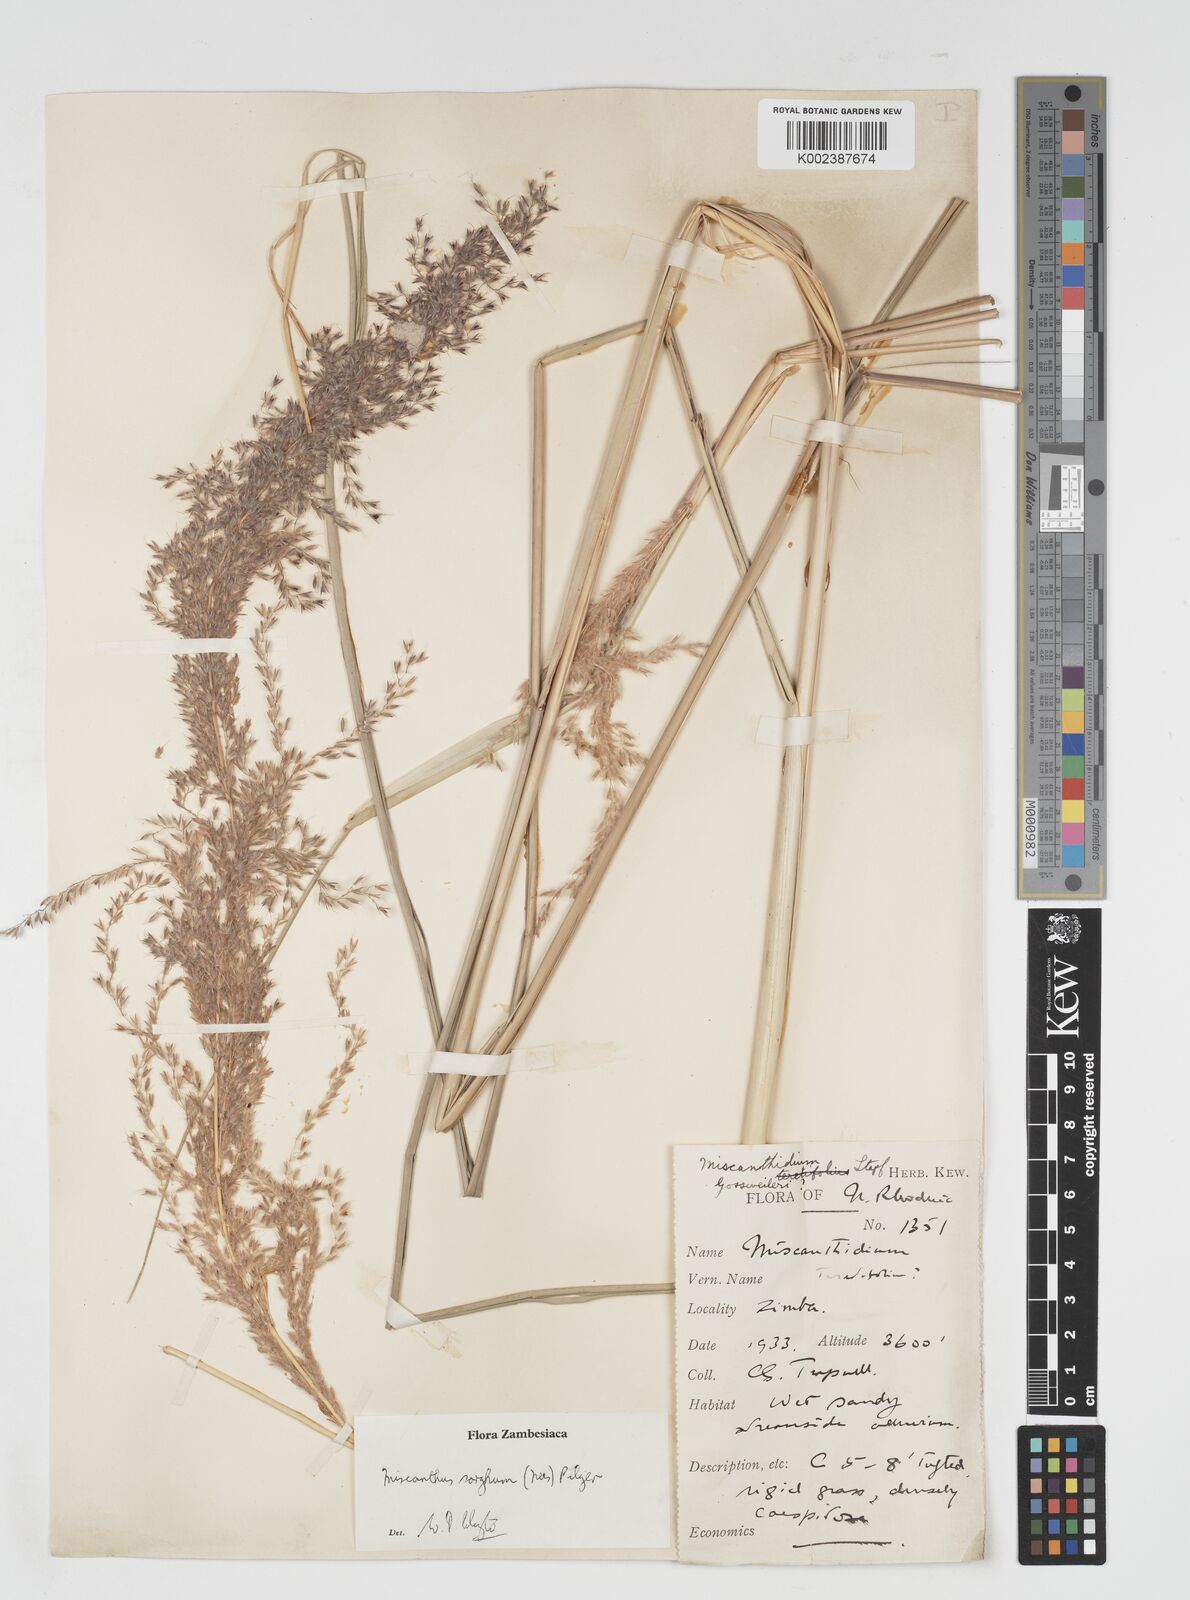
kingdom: Plantae
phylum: Tracheophyta
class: Liliopsida
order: Poales
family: Poaceae
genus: Miscanthus
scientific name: Miscanthus ecklonii
